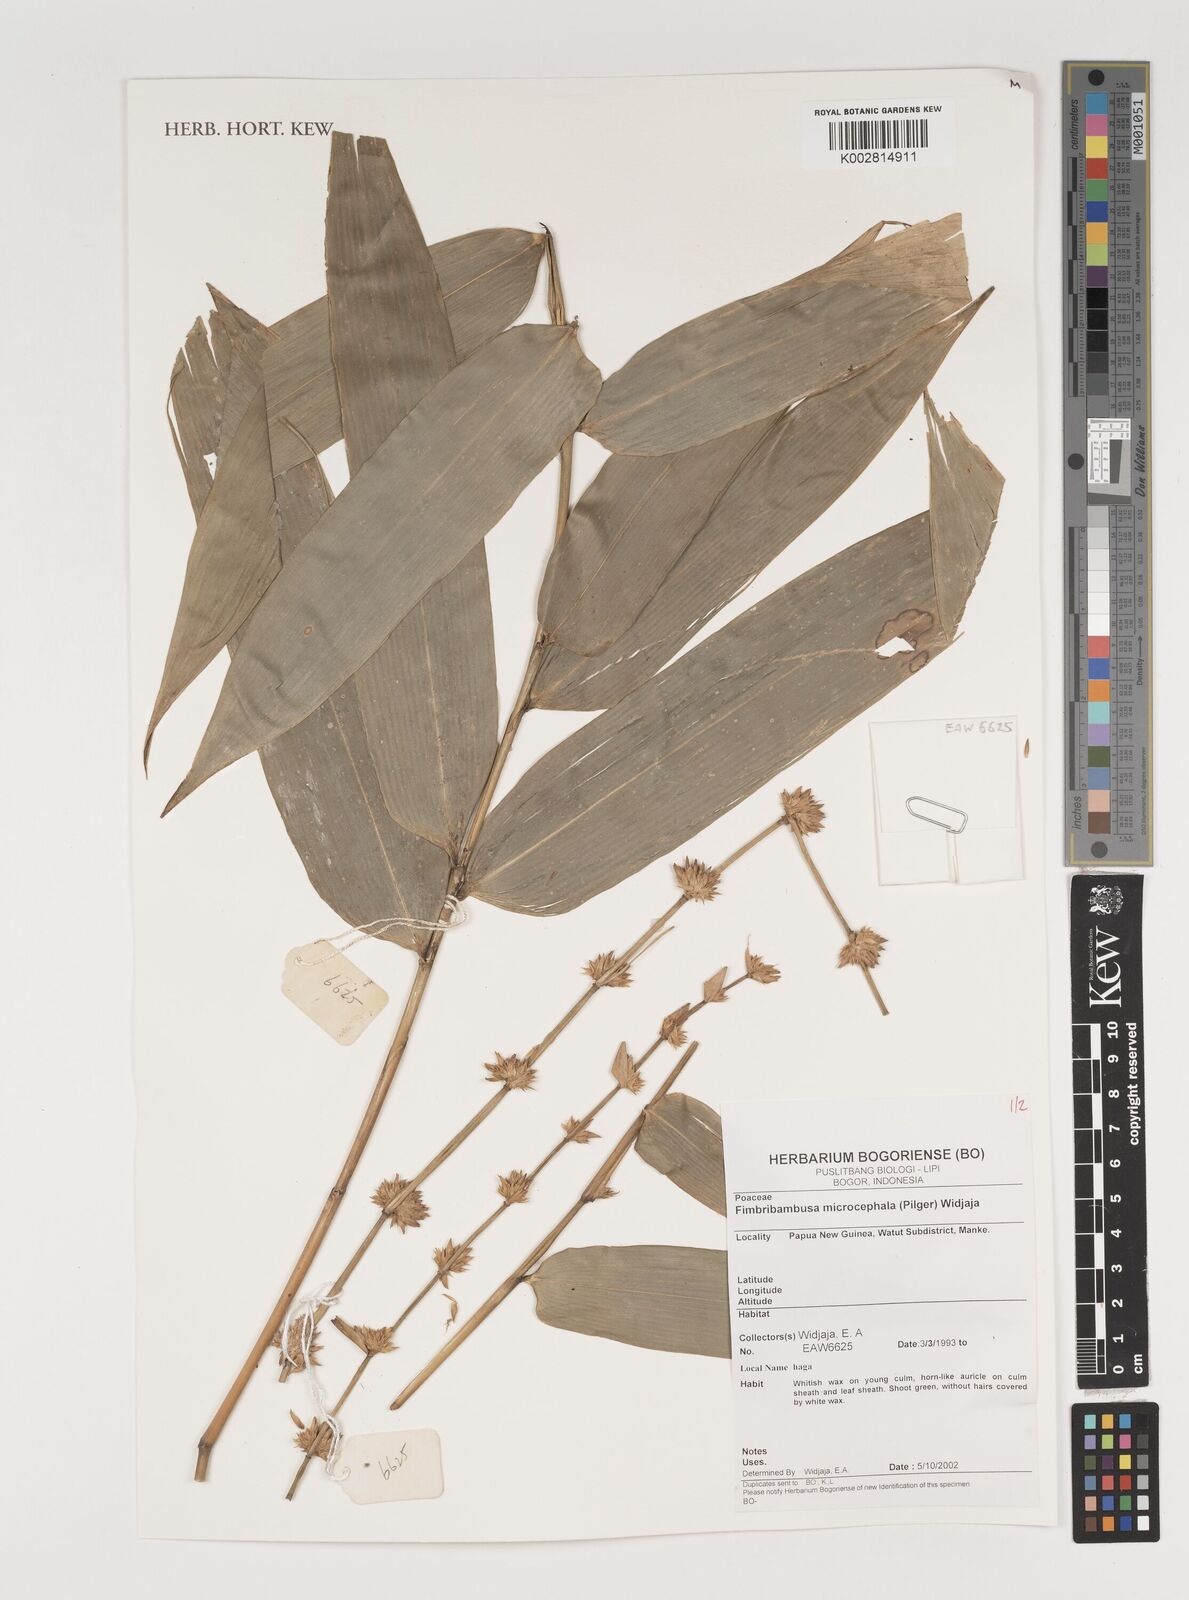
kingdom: Plantae
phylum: Tracheophyta
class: Liliopsida
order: Poales
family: Poaceae
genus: Fimbribambusa
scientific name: Fimbribambusa microcephala
